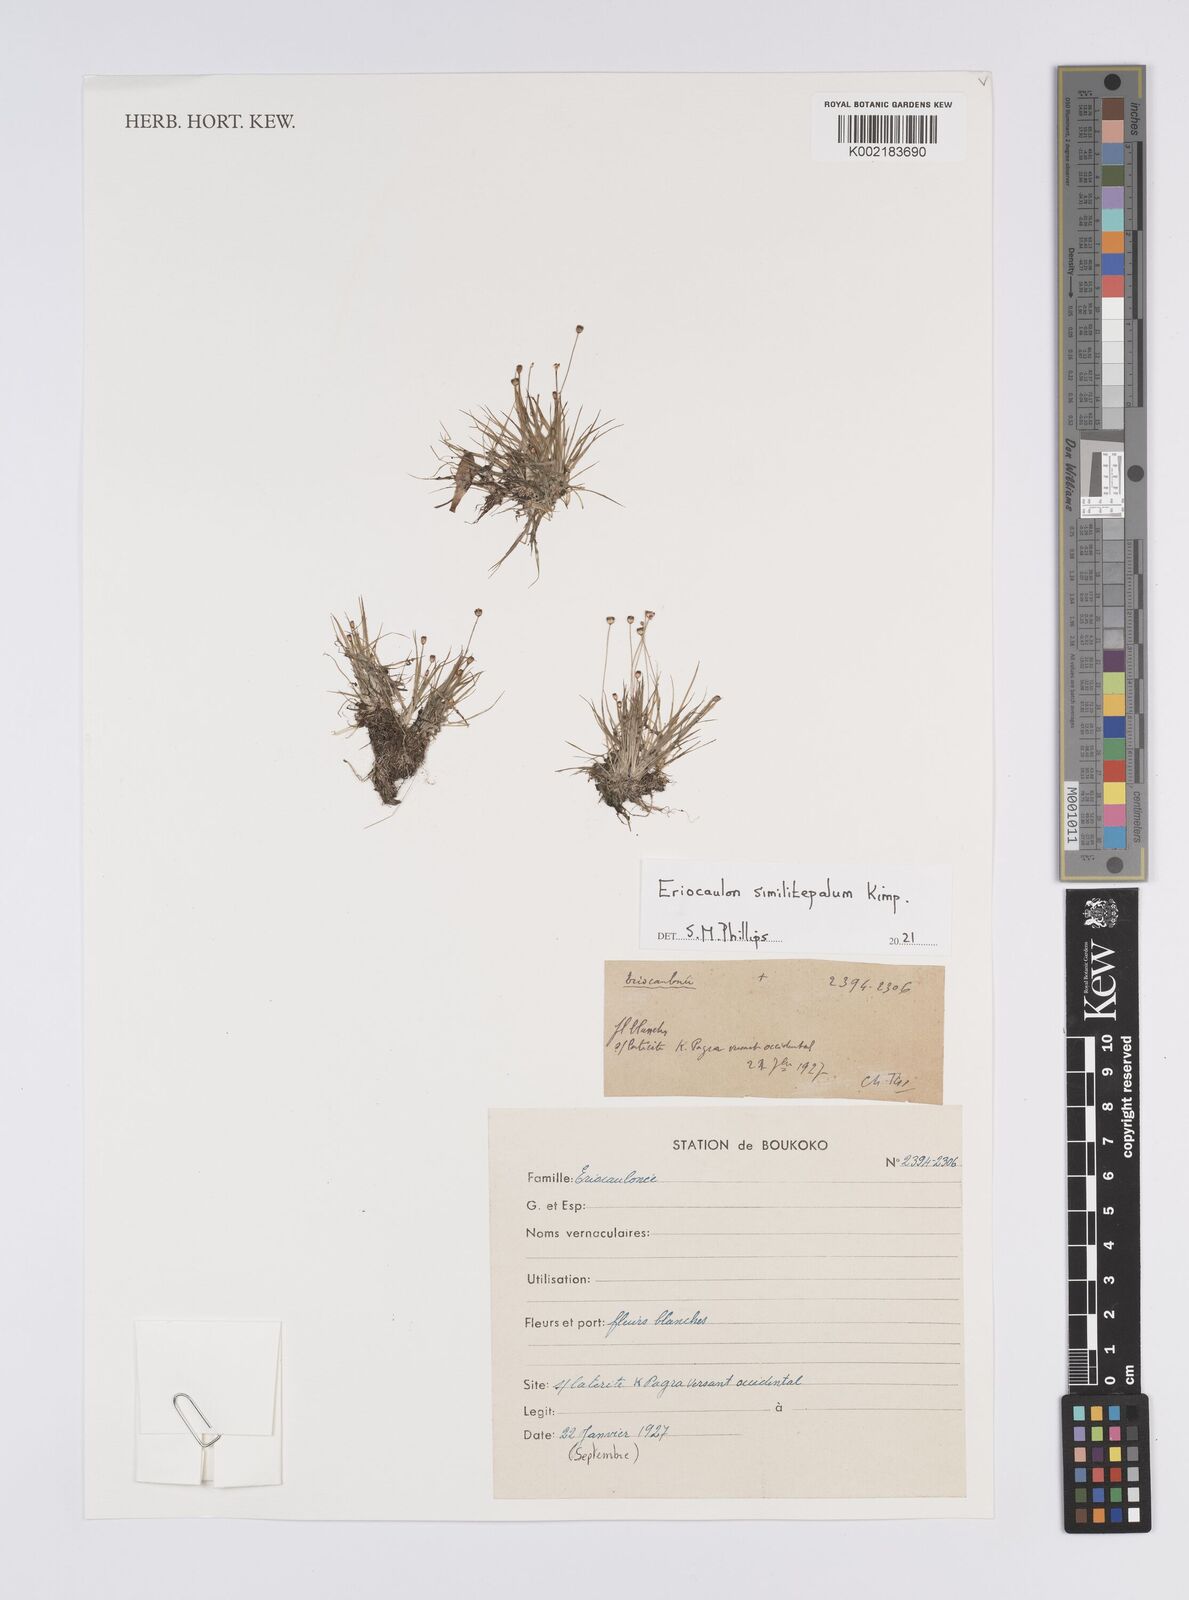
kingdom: Plantae
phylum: Tracheophyta
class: Liliopsida
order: Poales
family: Eriocaulaceae
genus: Eriocaulon
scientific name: Eriocaulon similitepalum
